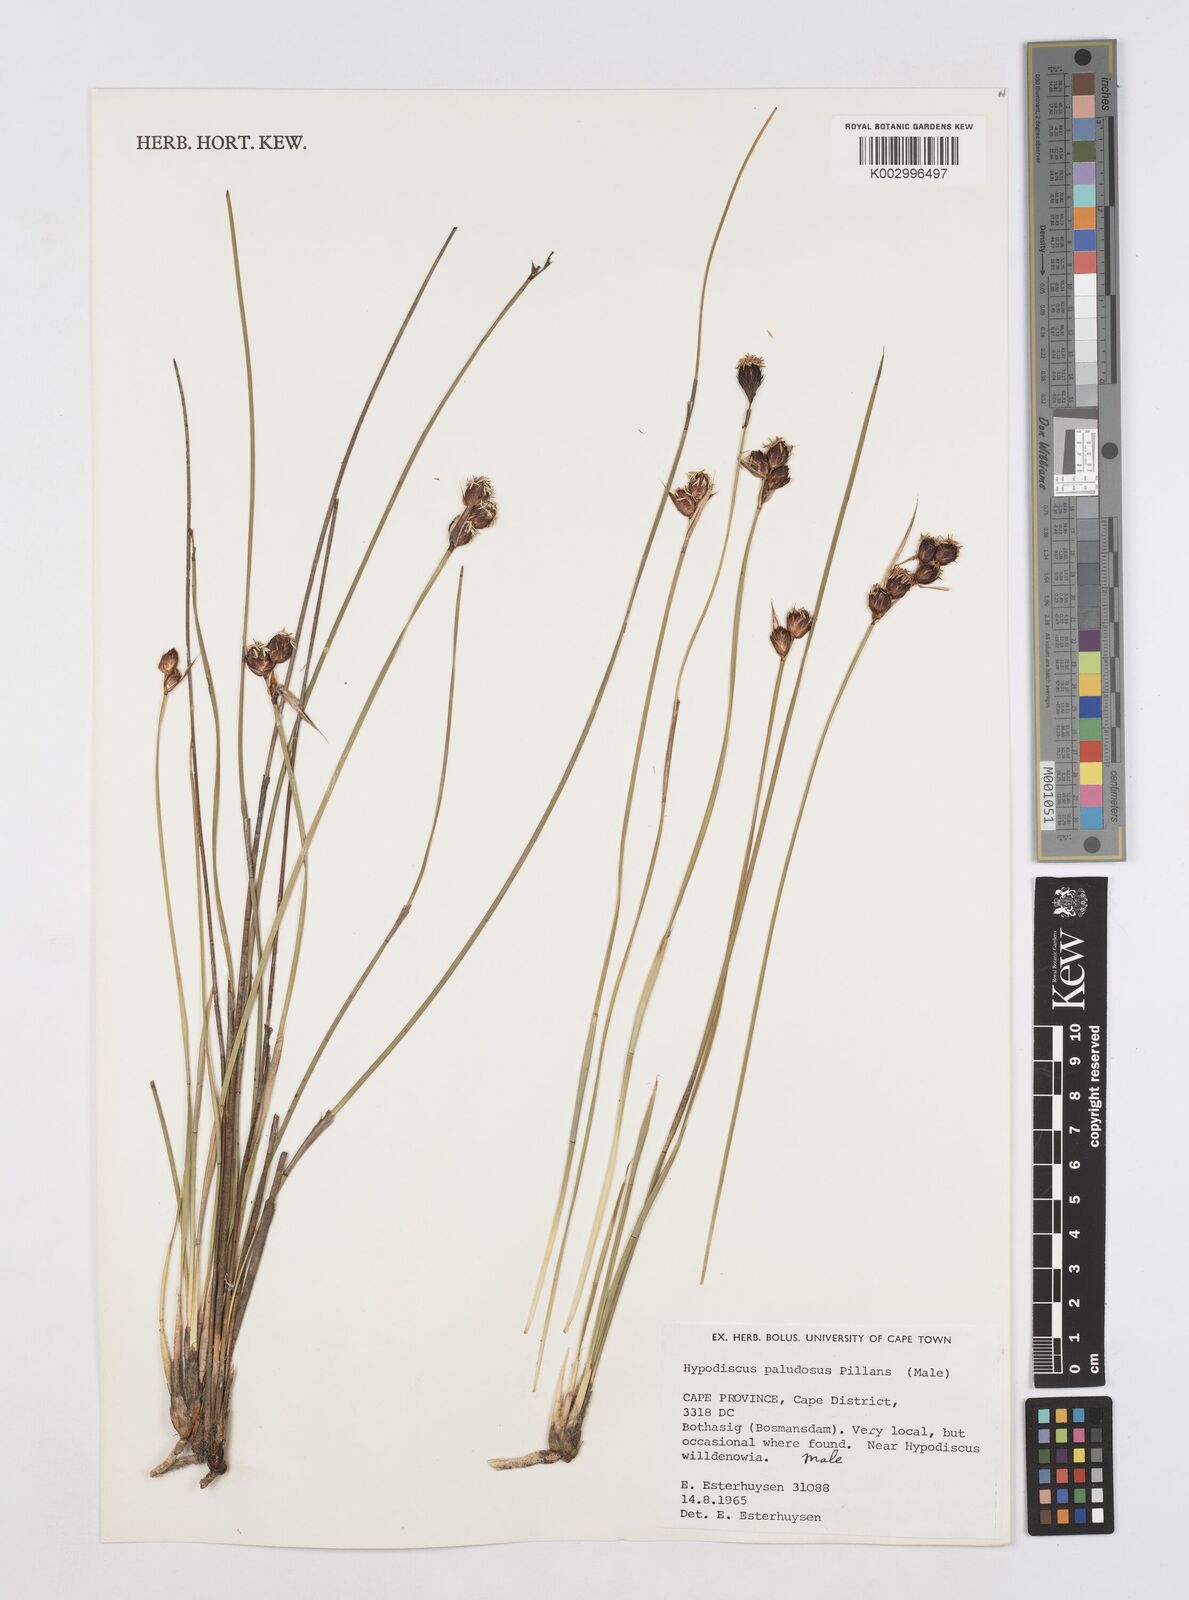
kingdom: Plantae
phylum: Tracheophyta
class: Liliopsida
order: Poales
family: Restionaceae
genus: Hypodiscus
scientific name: Hypodiscus rugosus
